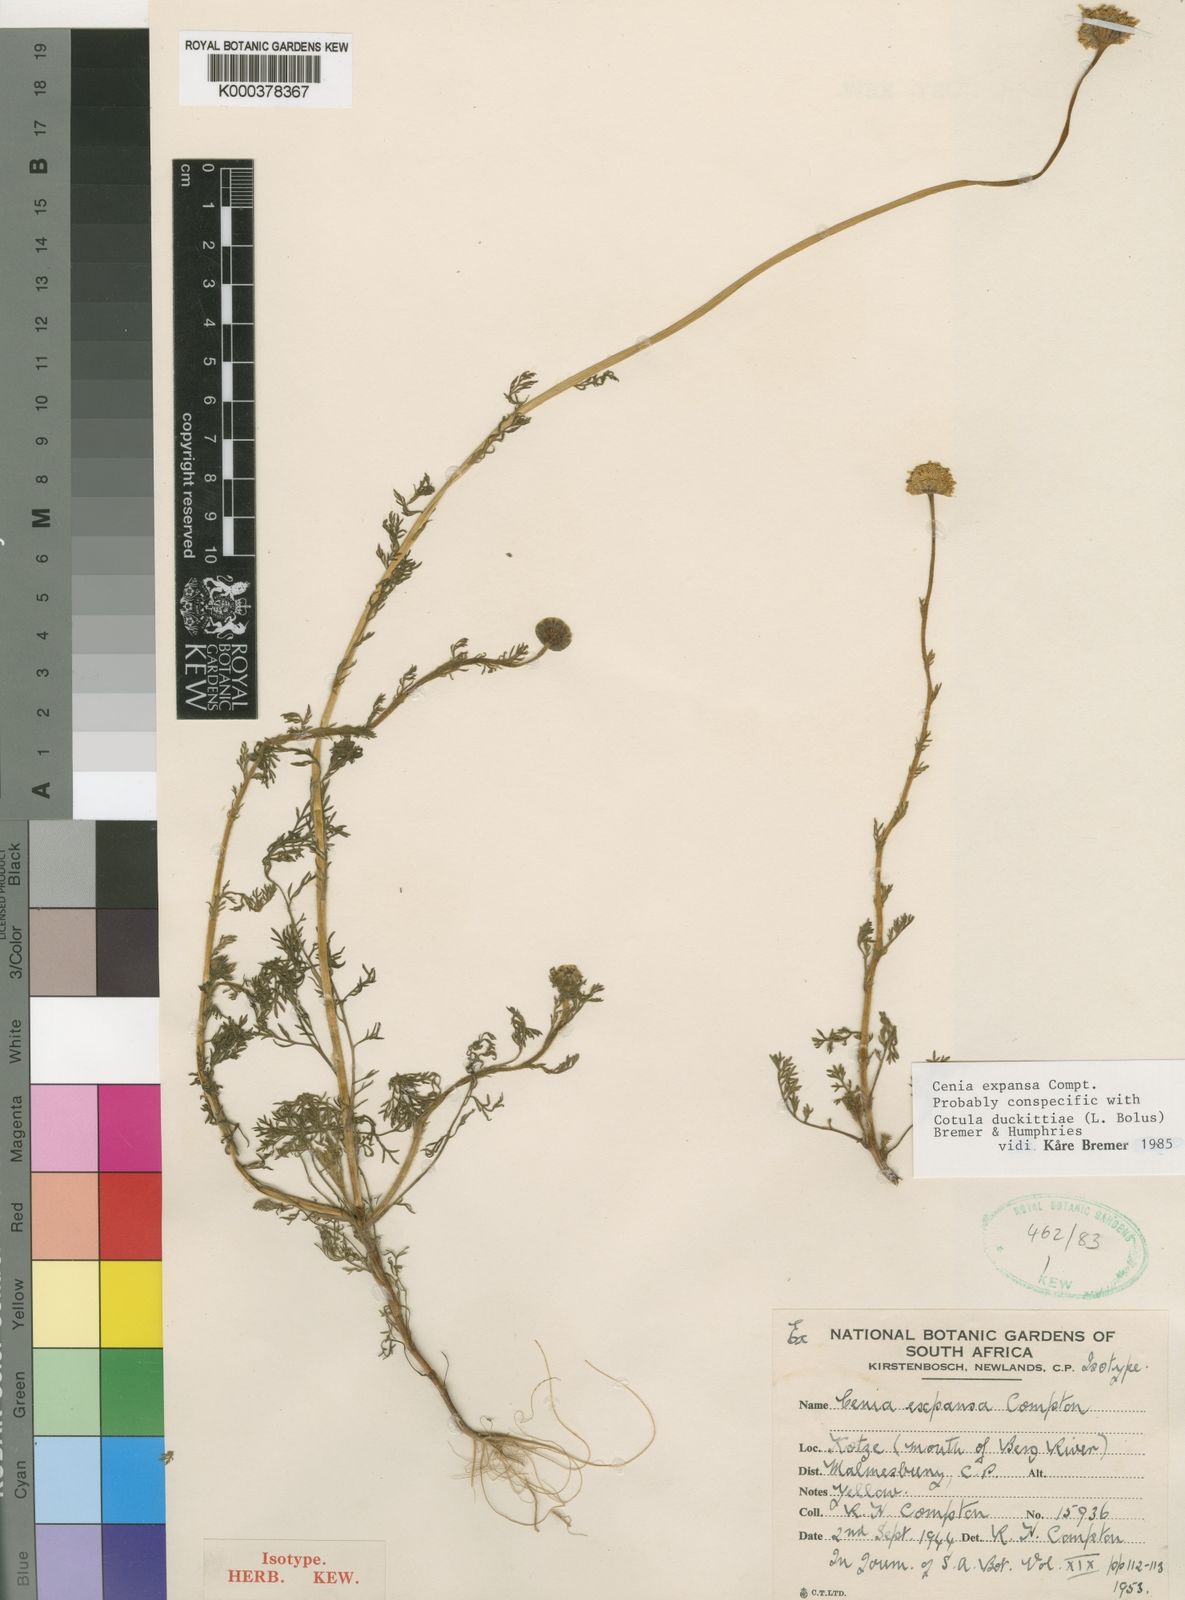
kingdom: Plantae
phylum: Tracheophyta
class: Magnoliopsida
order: Asterales
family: Asteraceae
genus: Cotula
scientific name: Cotula duckittiae
